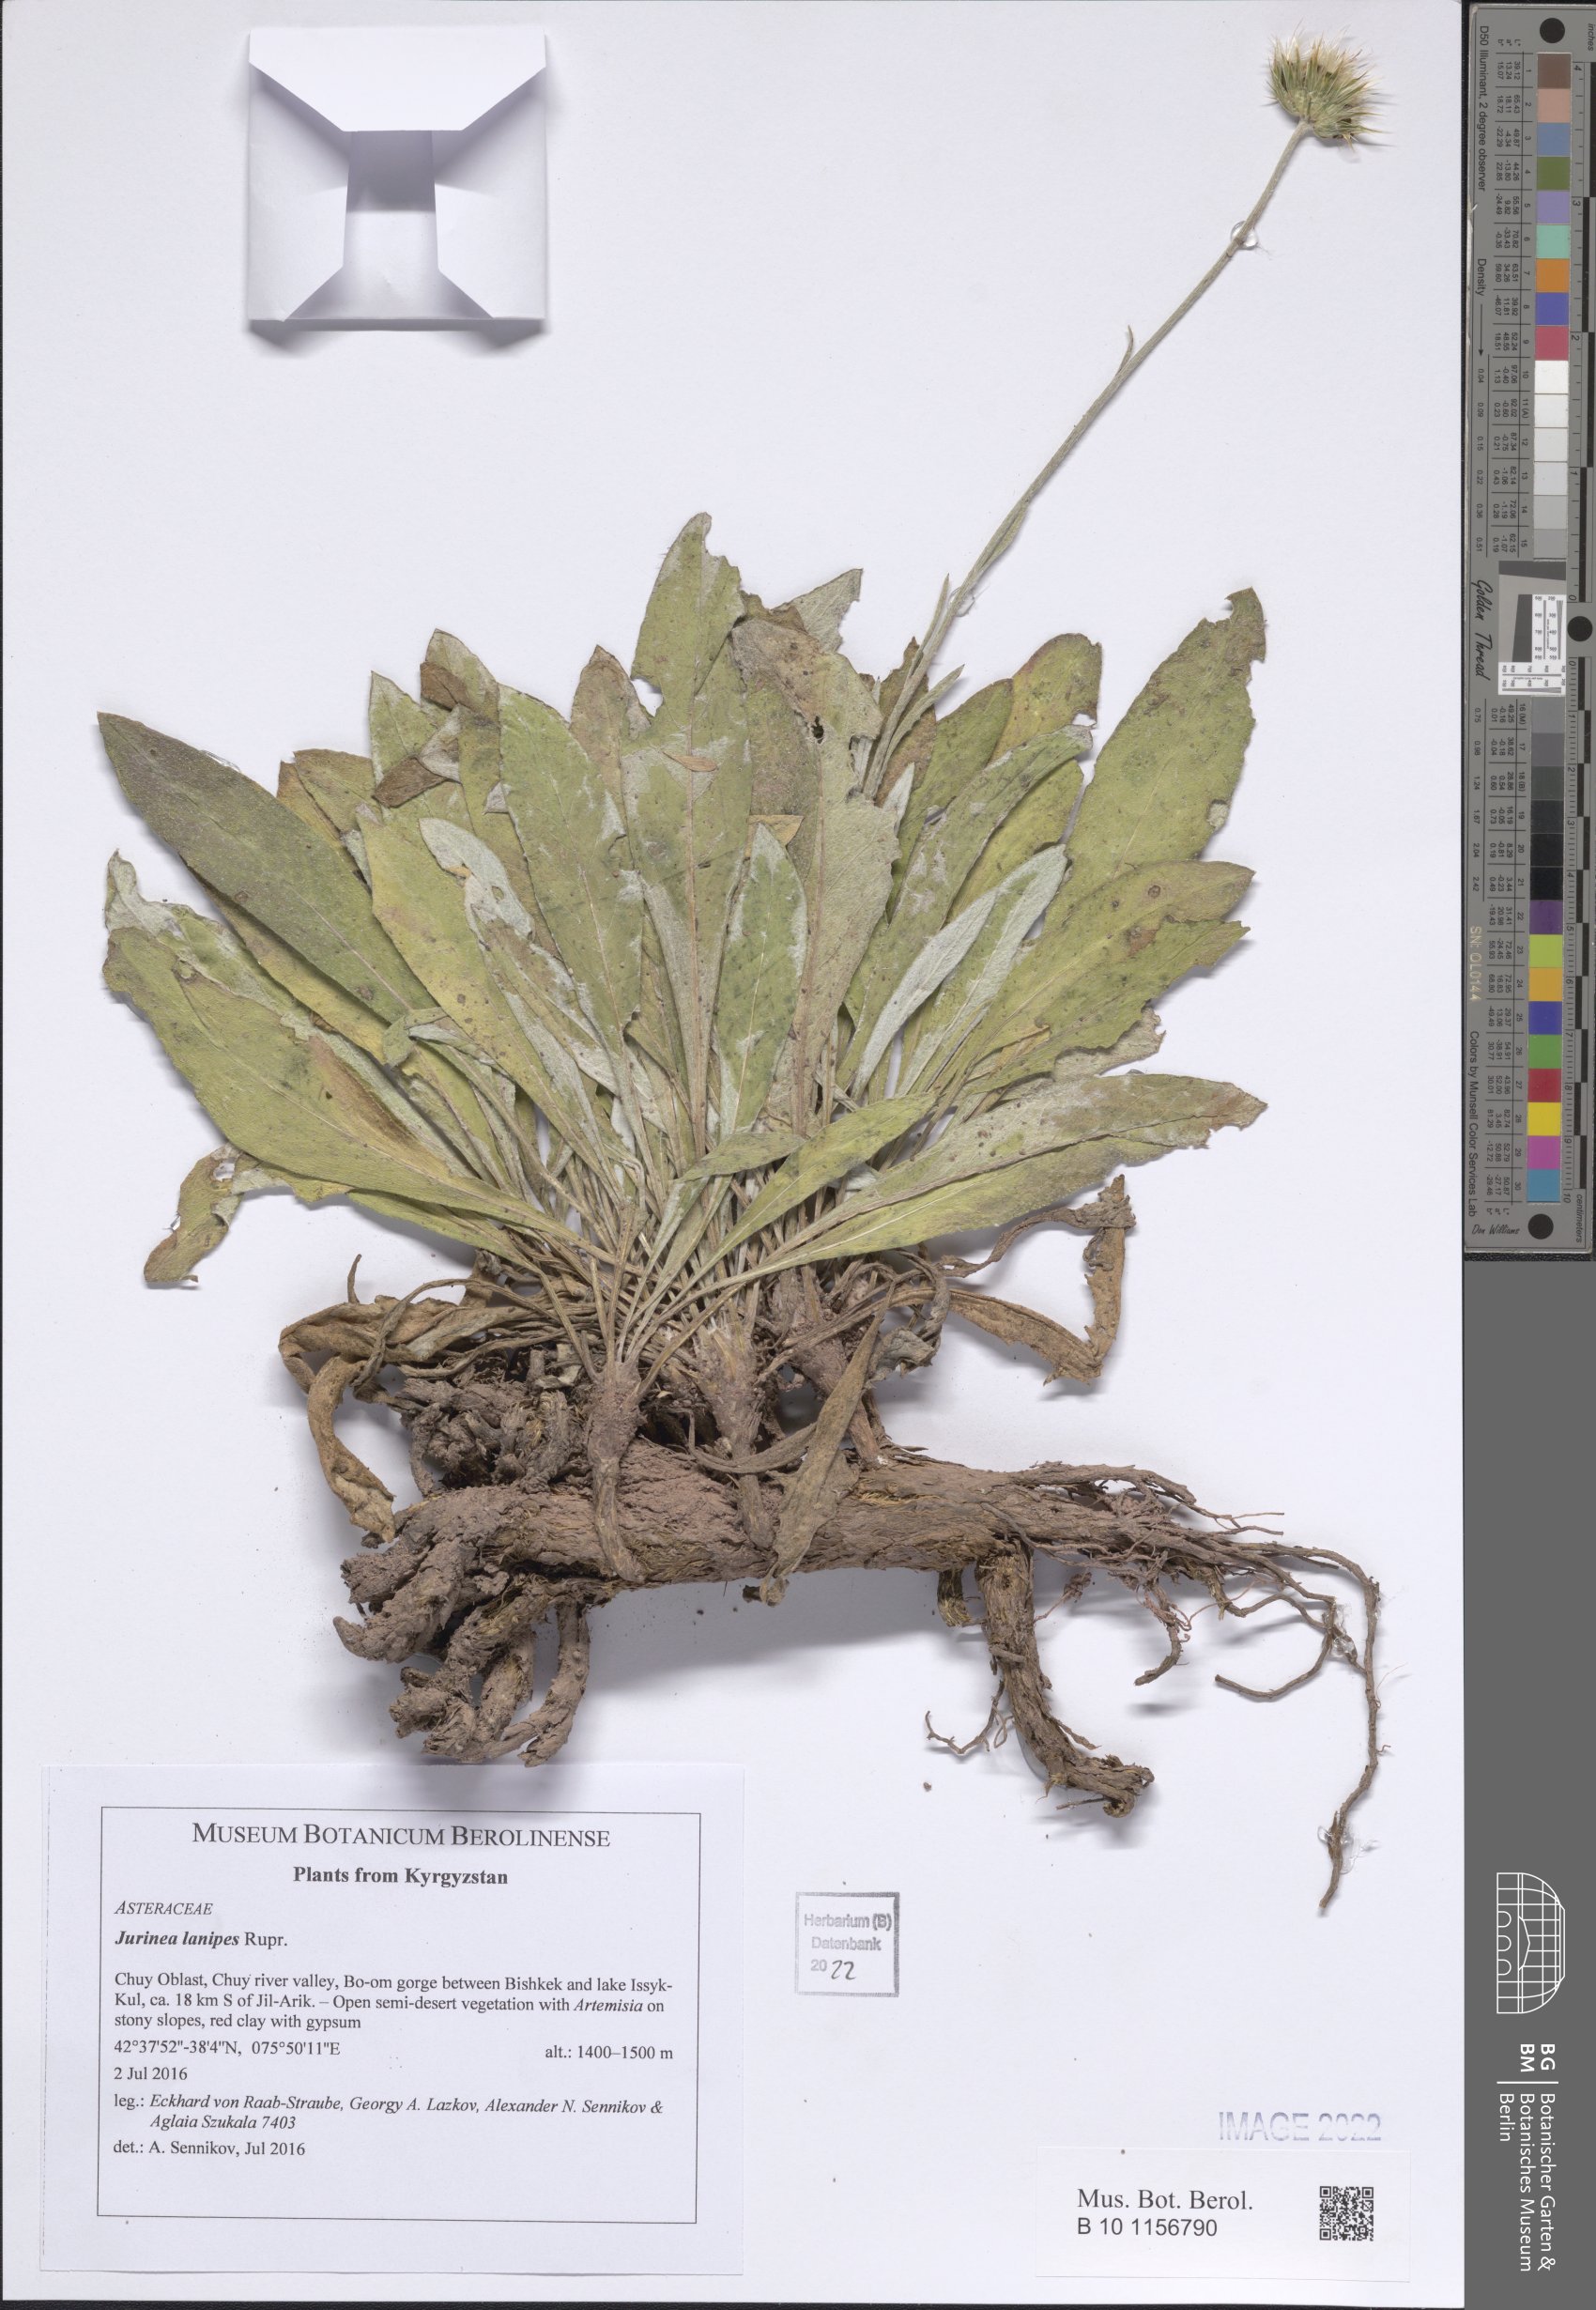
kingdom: Plantae
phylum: Tracheophyta
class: Magnoliopsida
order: Asterales
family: Asteraceae
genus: Jurinea
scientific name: Jurinea lanipes
